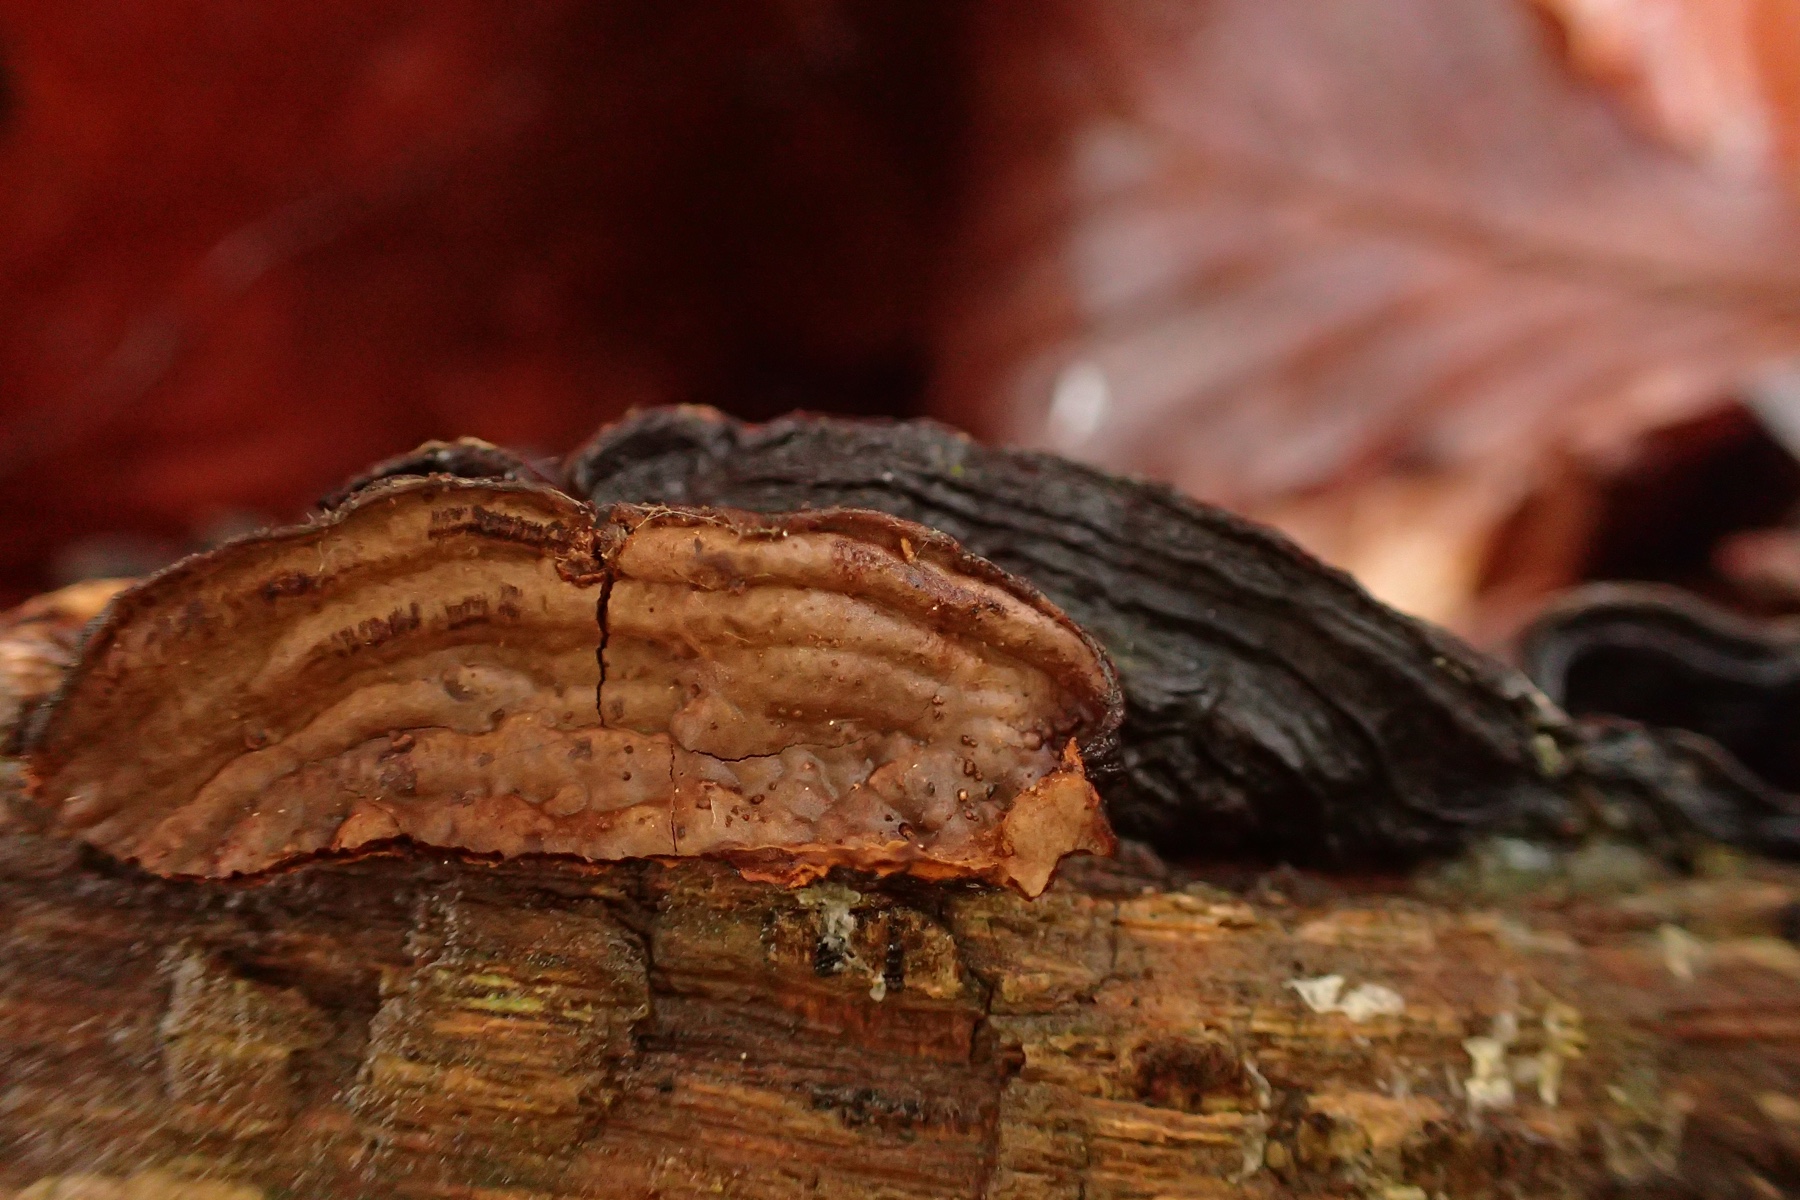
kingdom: Fungi
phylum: Basidiomycota
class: Agaricomycetes
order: Hymenochaetales
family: Hymenochaetaceae
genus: Hymenochaete
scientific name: Hymenochaete rubiginosa
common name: stiv ruslædersvamp
